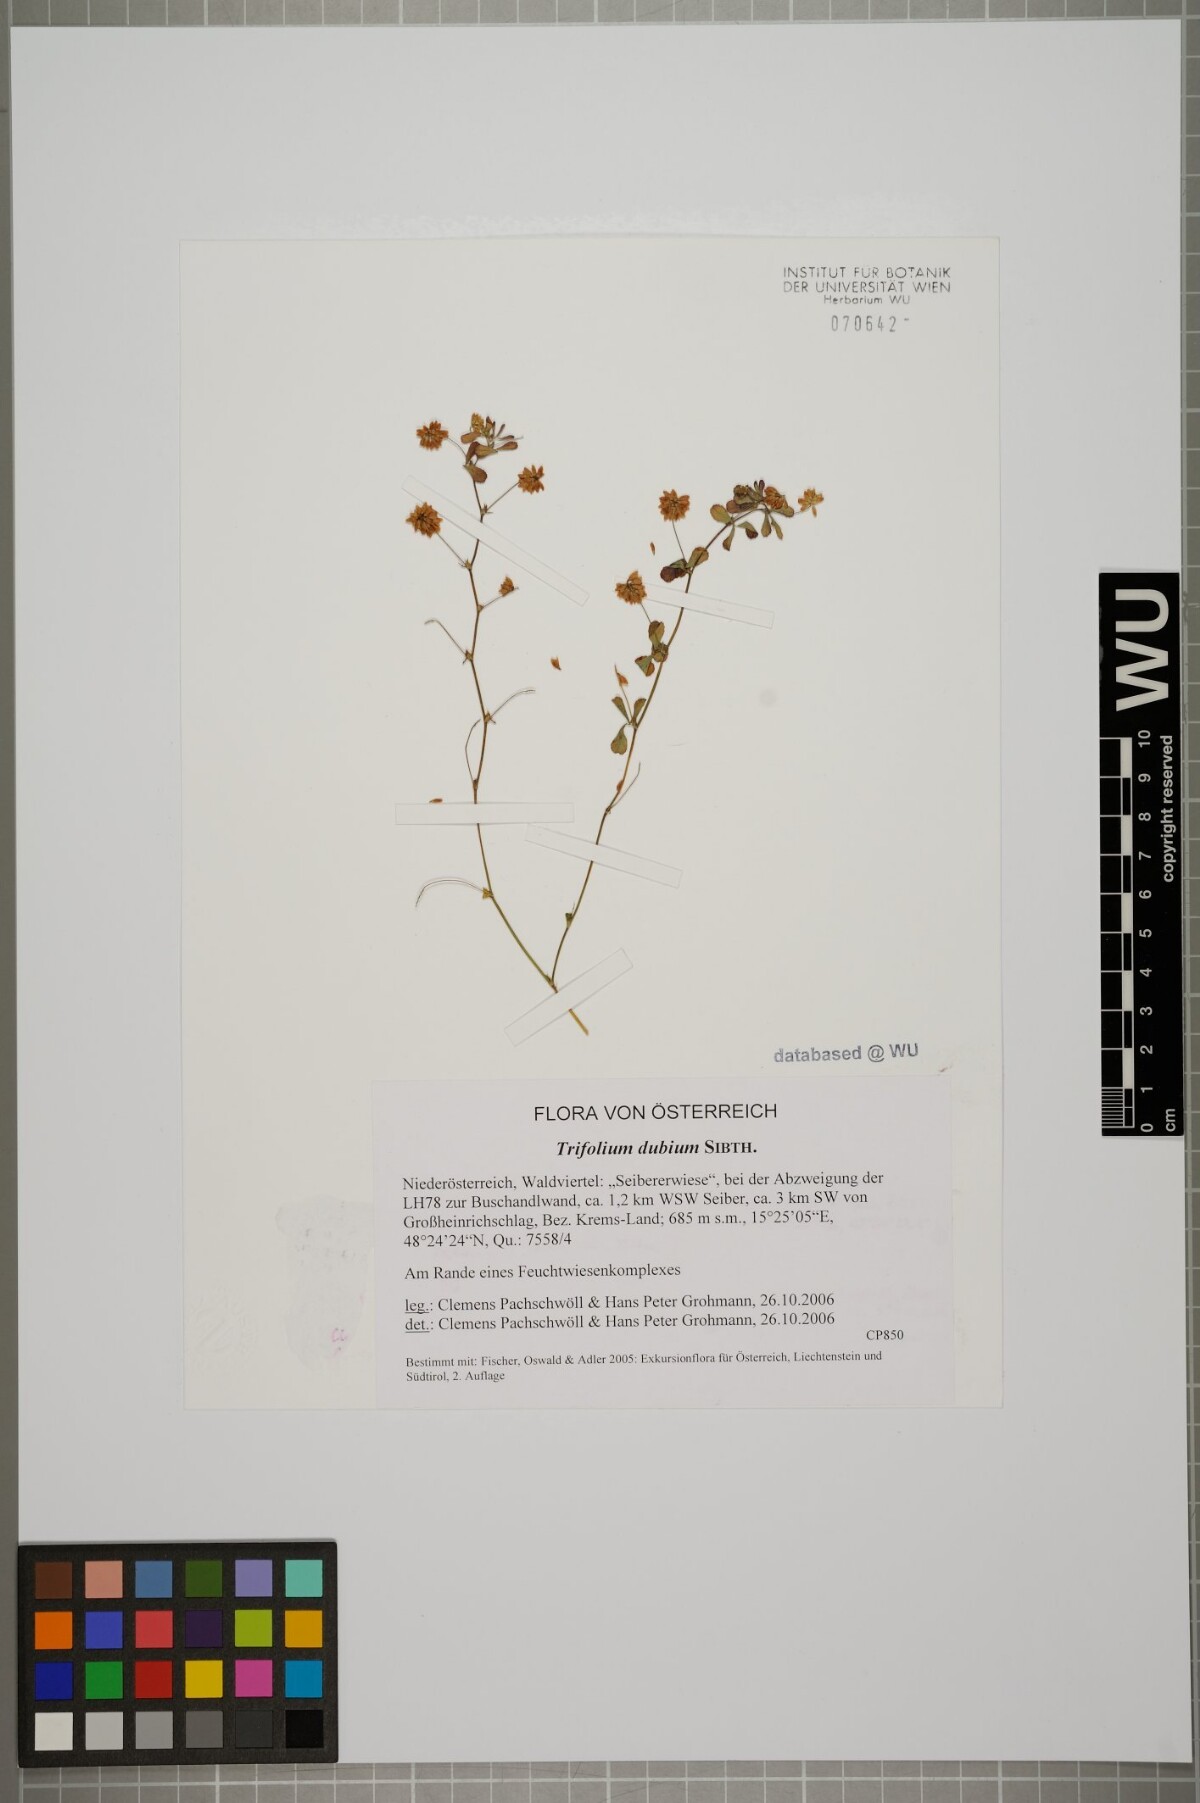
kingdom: Plantae
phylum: Tracheophyta
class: Magnoliopsida
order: Fabales
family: Fabaceae
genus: Trifolium
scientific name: Trifolium dubium
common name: Suckling clover
